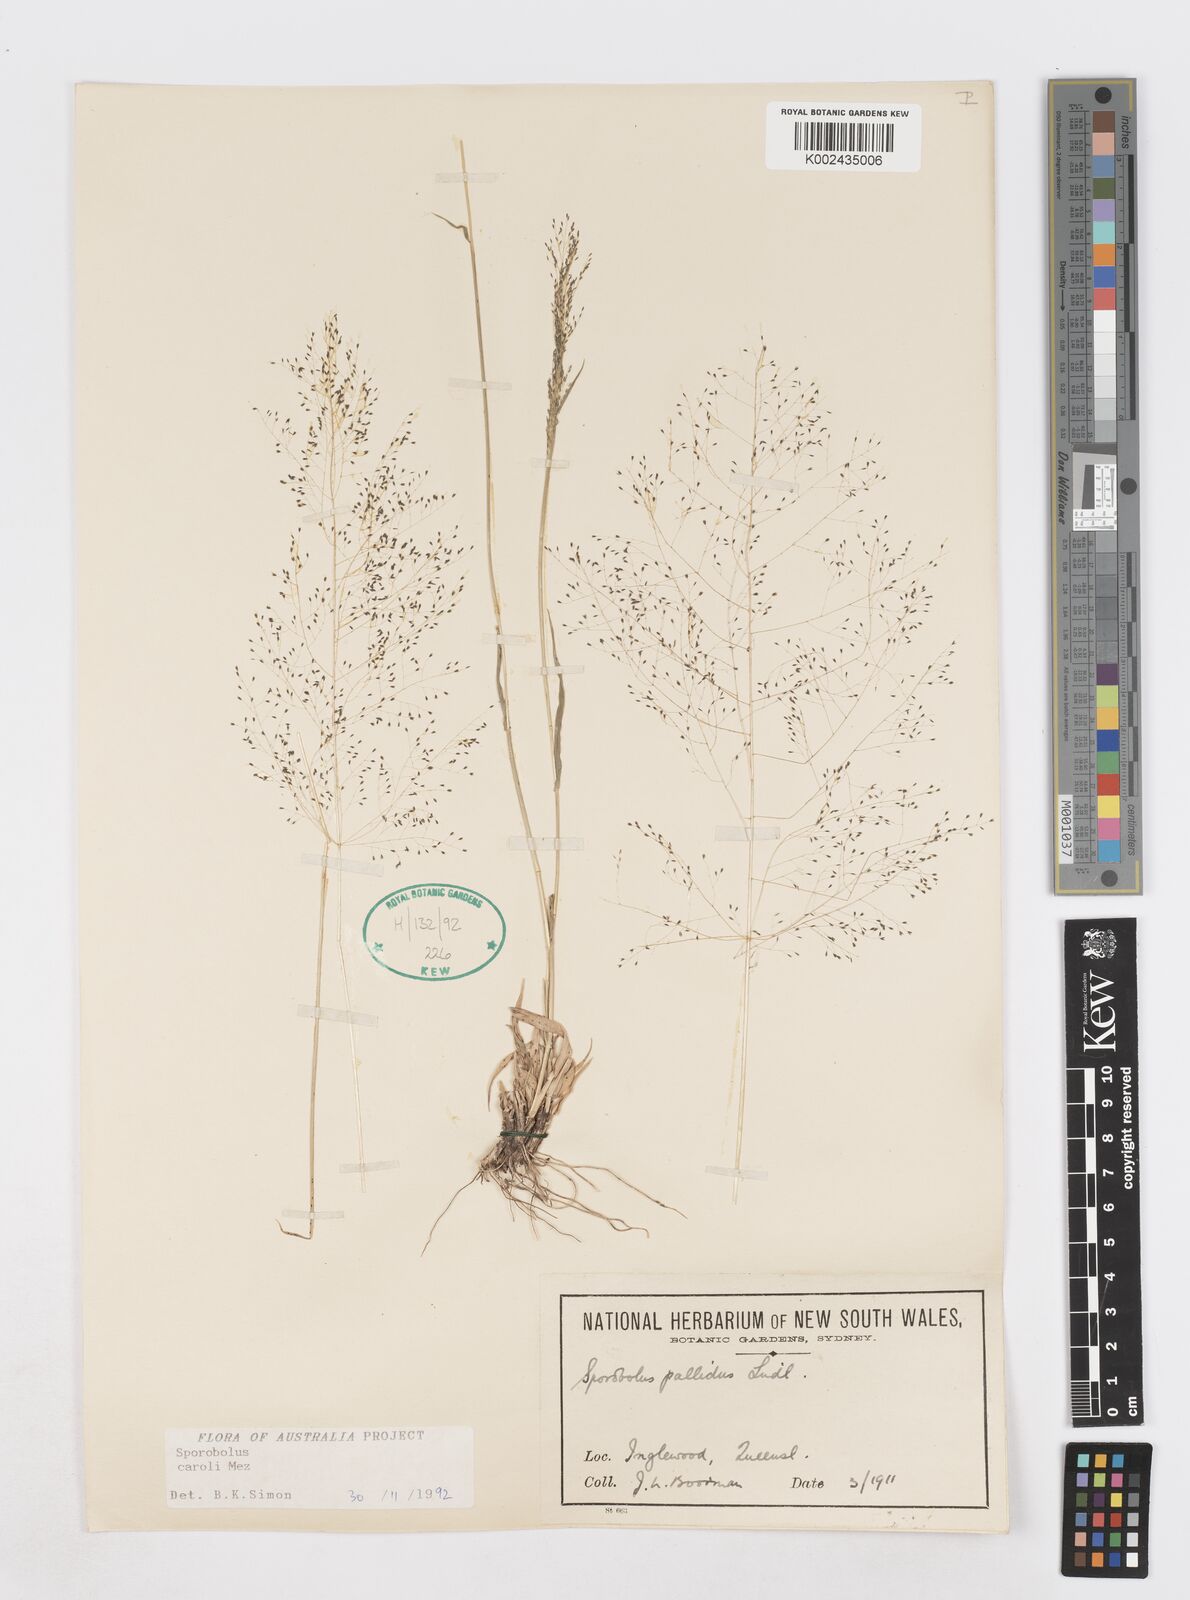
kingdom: Plantae
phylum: Tracheophyta
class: Liliopsida
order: Poales
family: Poaceae
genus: Sporobolus
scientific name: Sporobolus caroli
